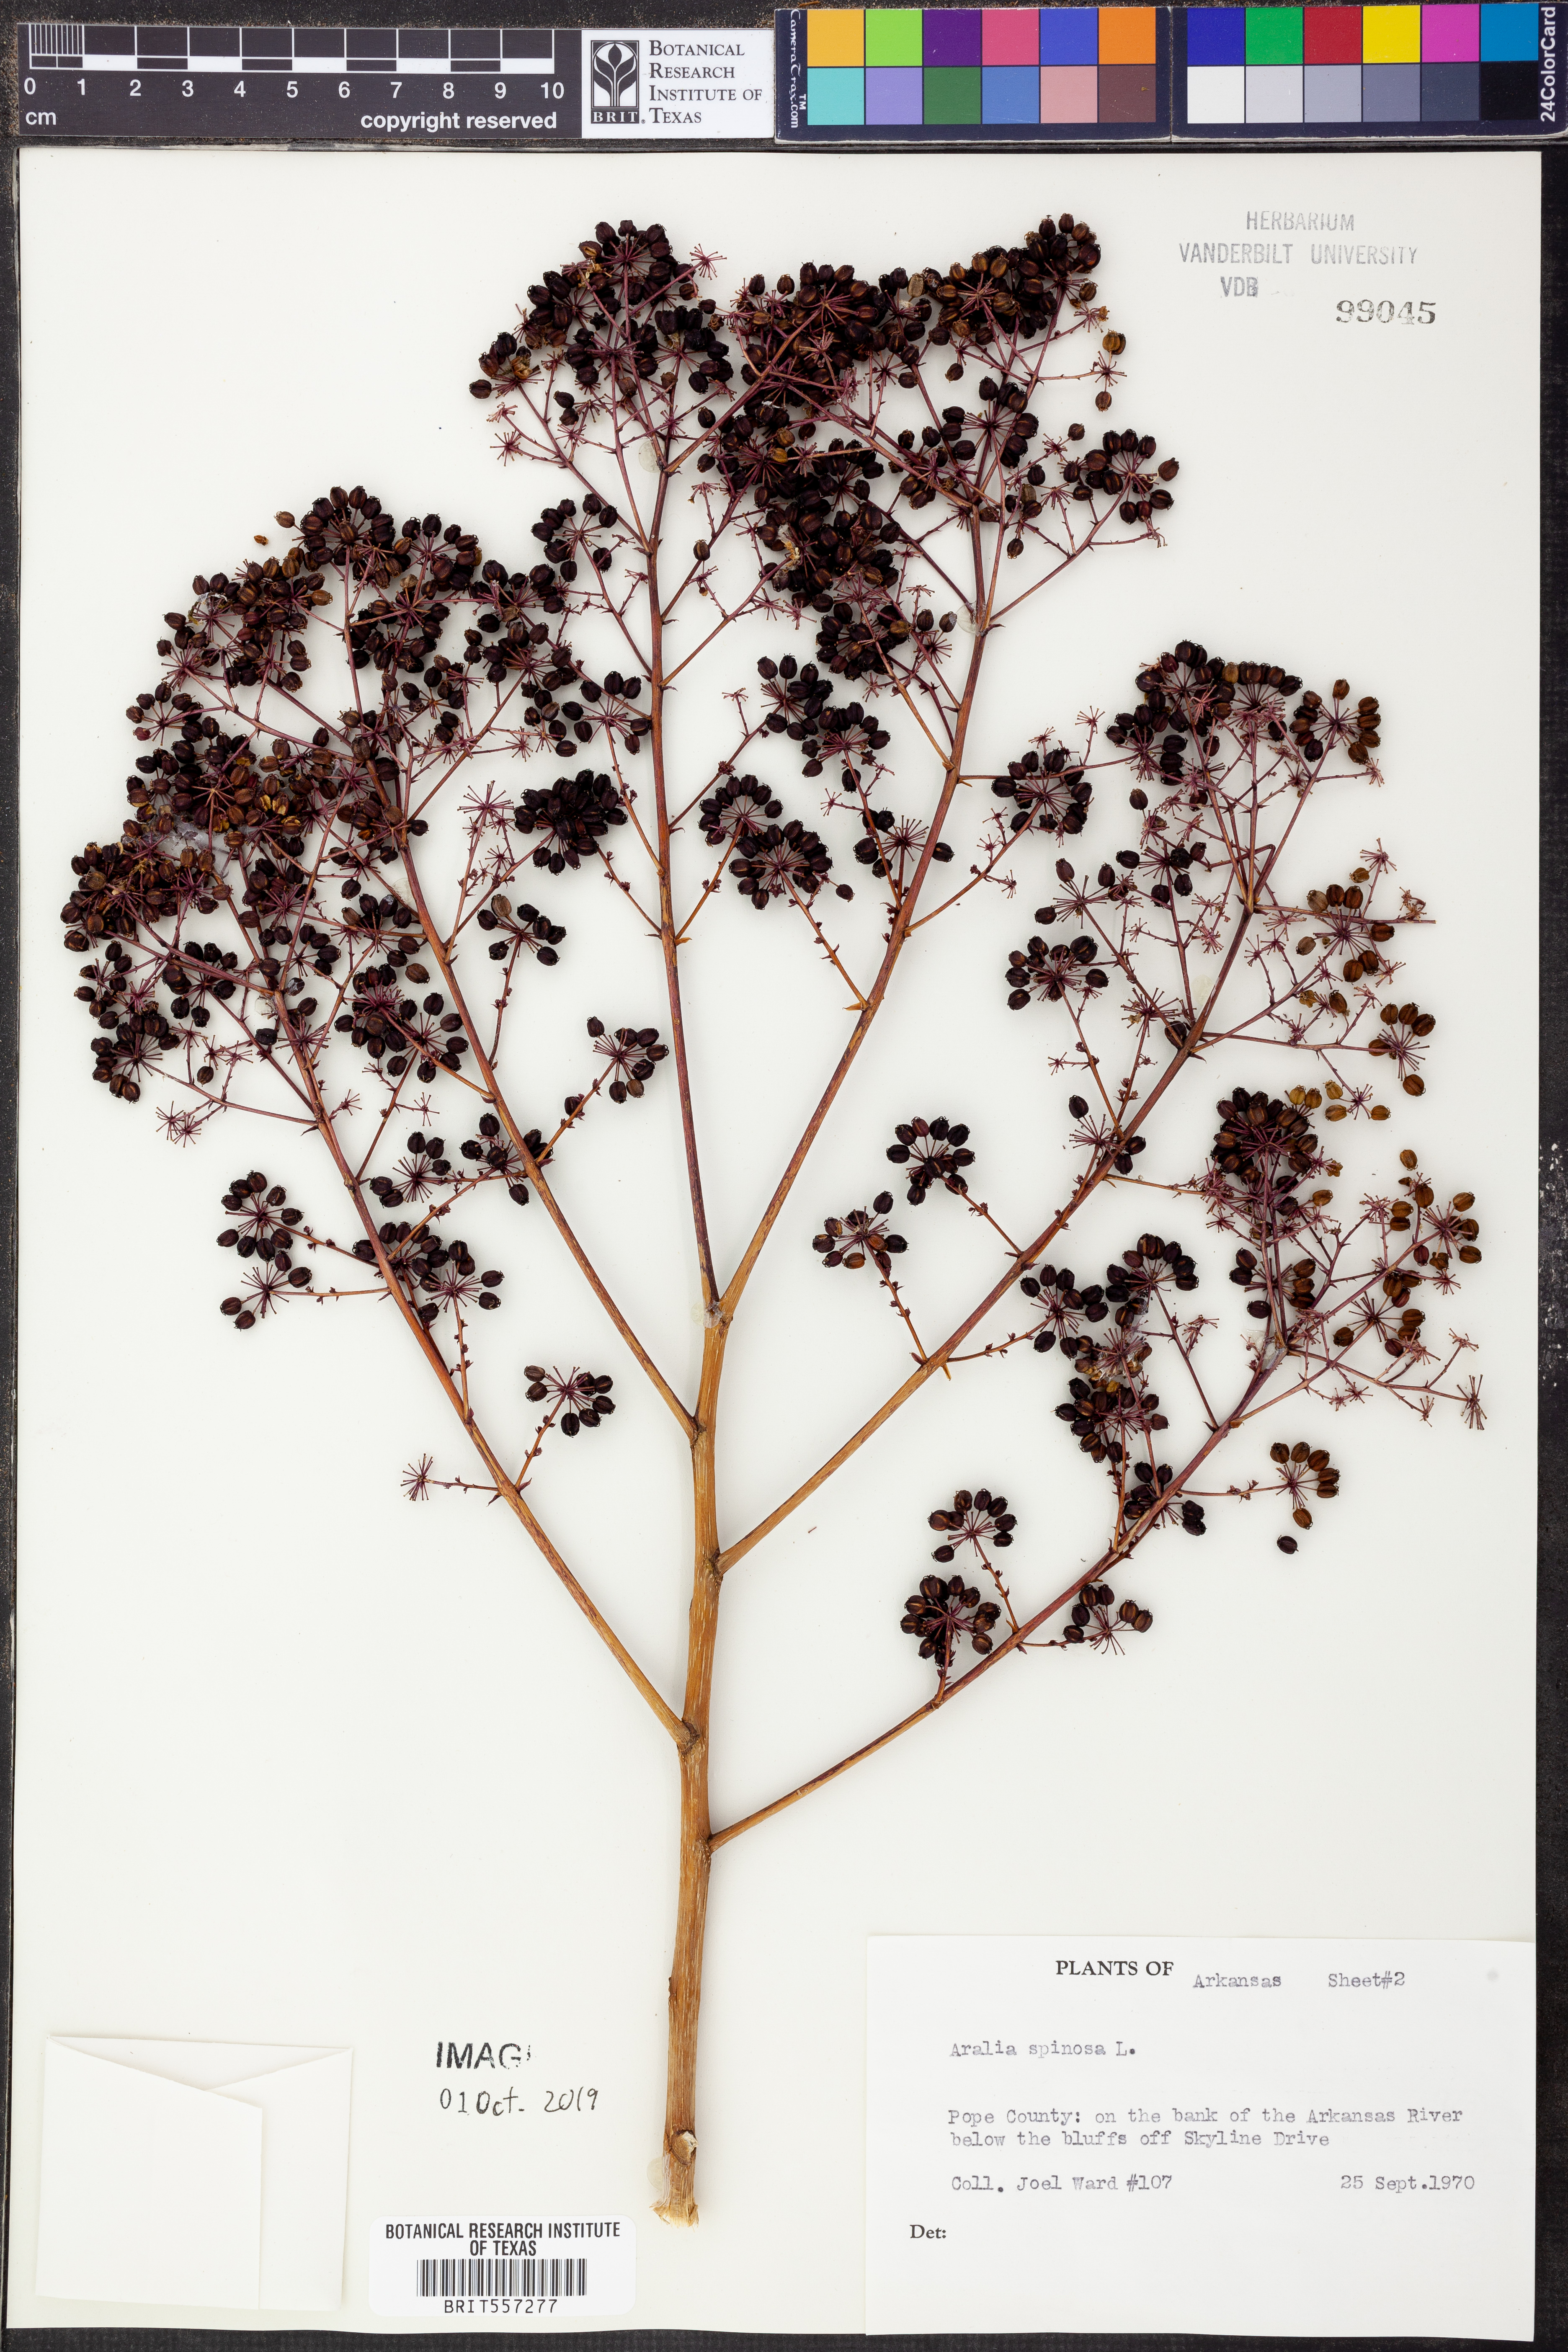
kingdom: Plantae
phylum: Tracheophyta
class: Magnoliopsida
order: Apiales
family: Araliaceae
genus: Aralia
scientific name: Aralia spinosa
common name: Hercules'-club
